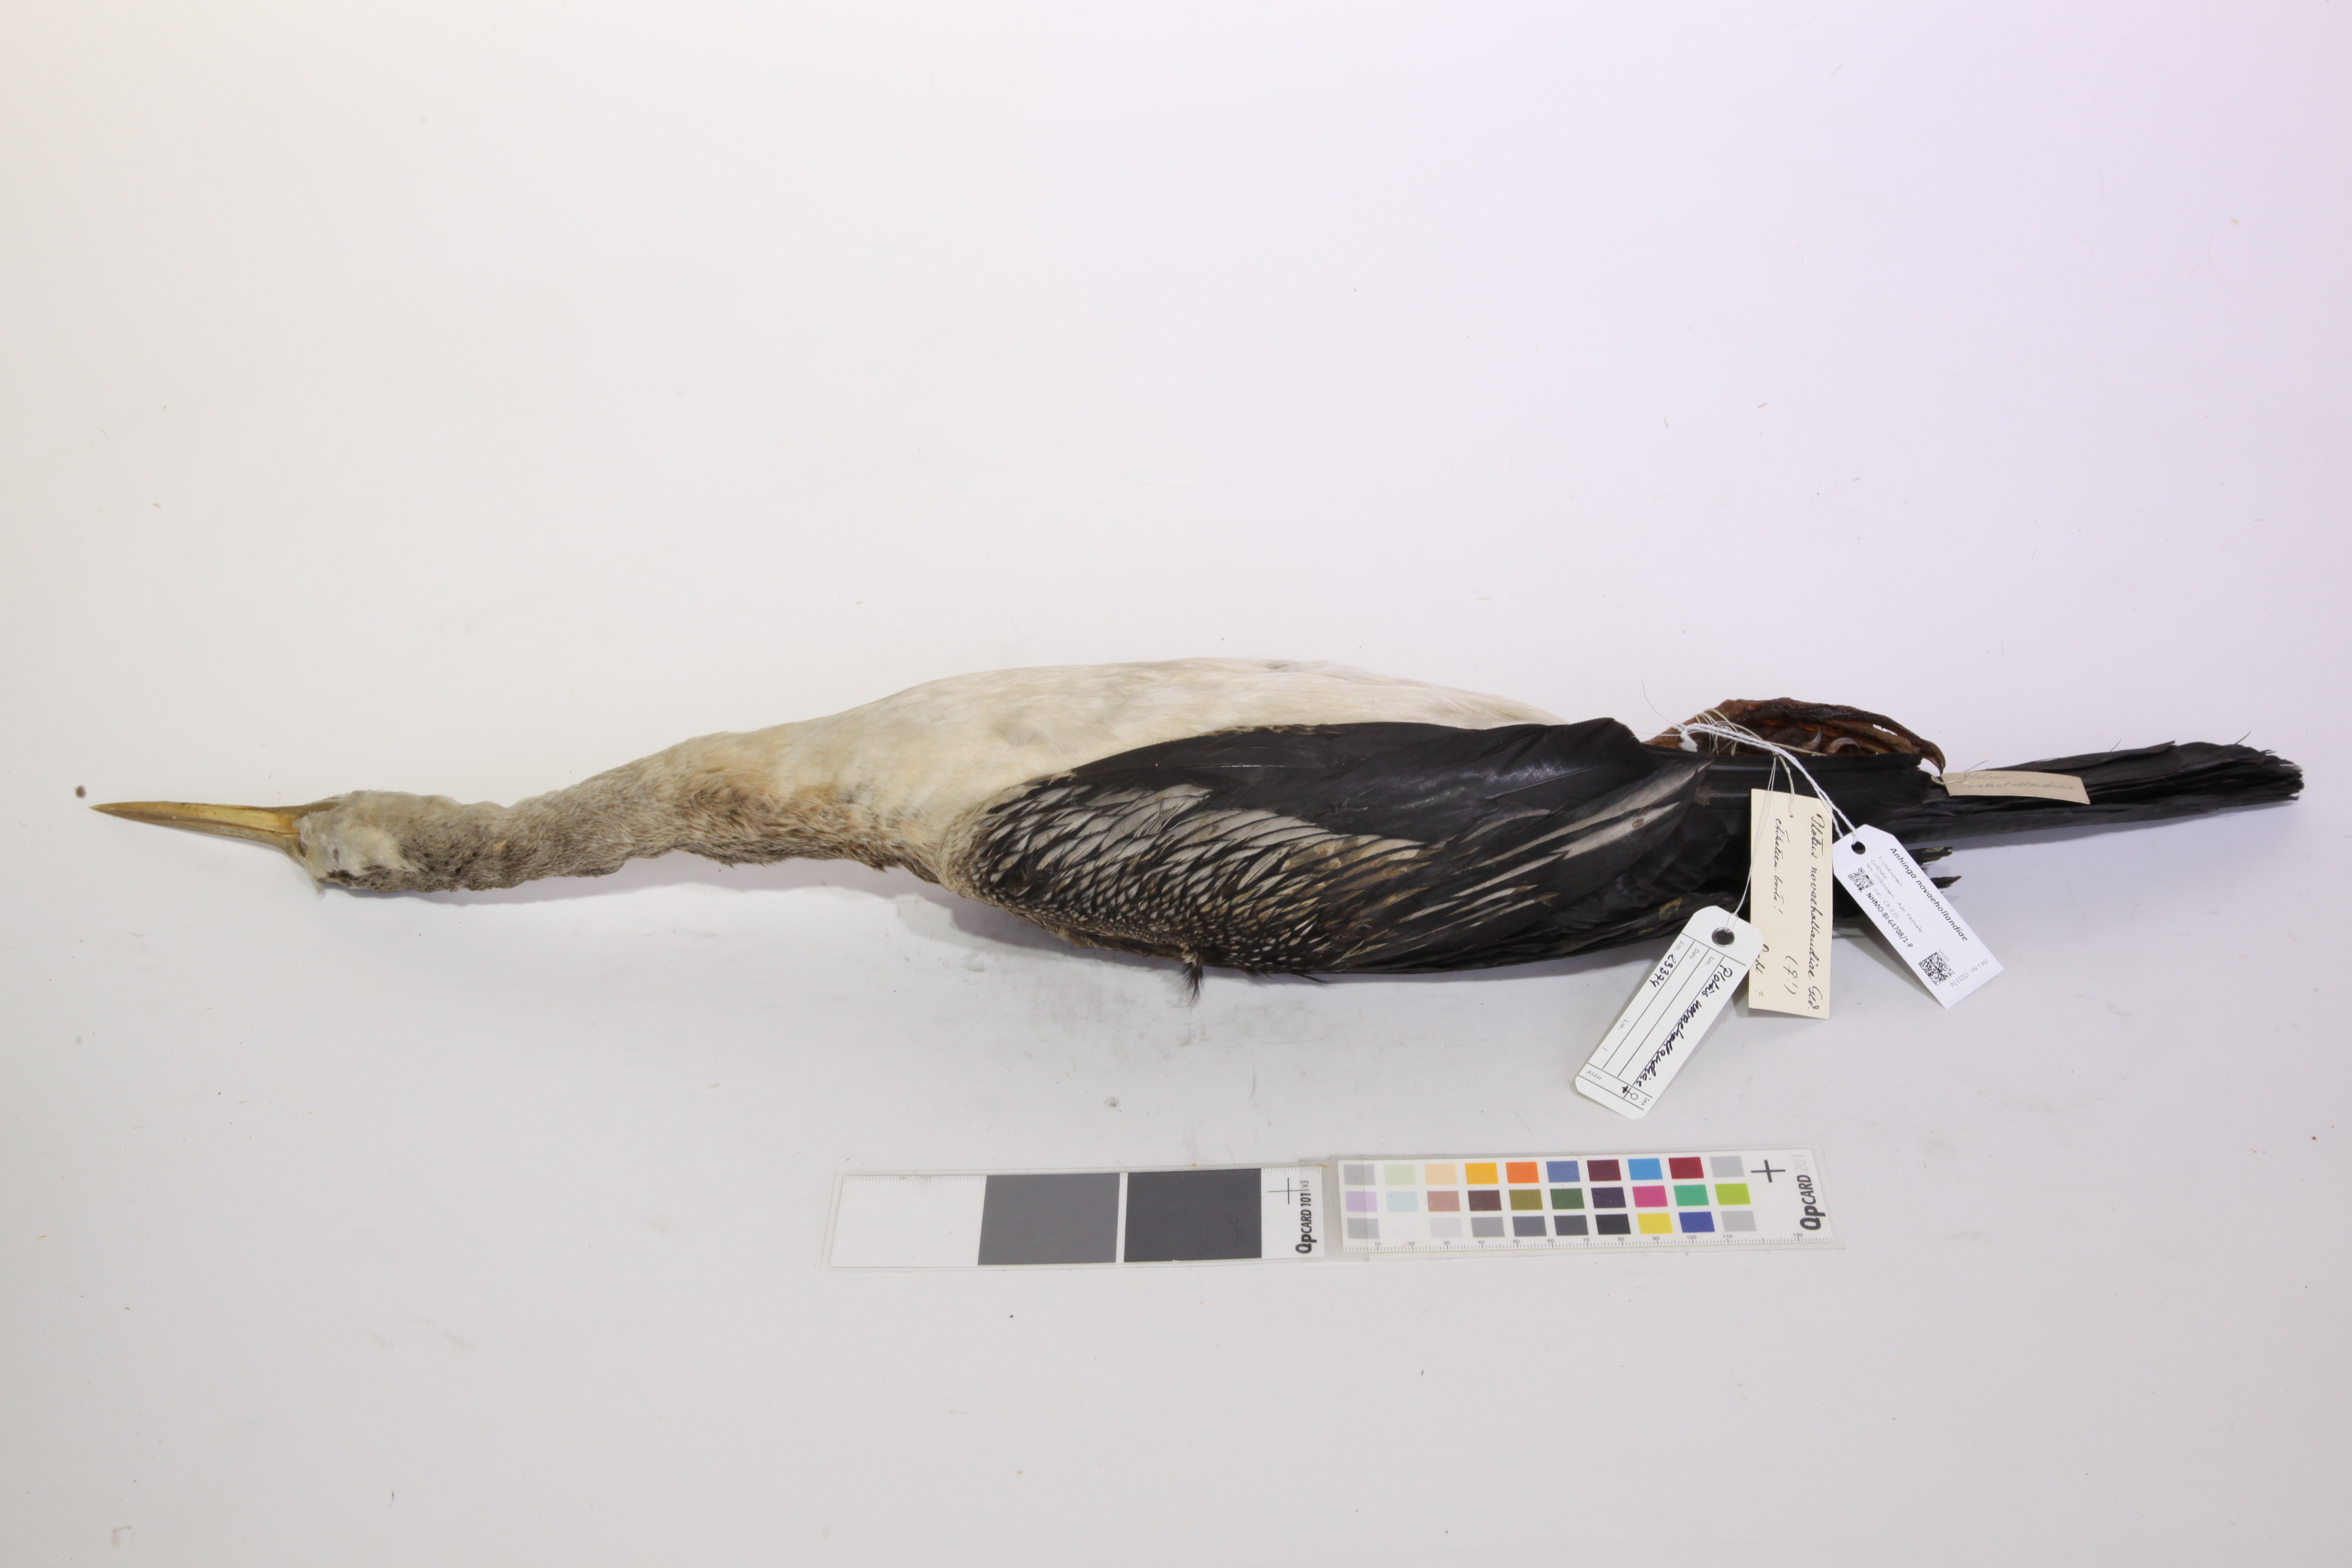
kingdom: Animalia
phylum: Chordata
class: Aves
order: Suliformes
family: Anhingidae
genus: Anhinga
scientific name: Anhinga novaehollandiae
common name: Australasian darter
